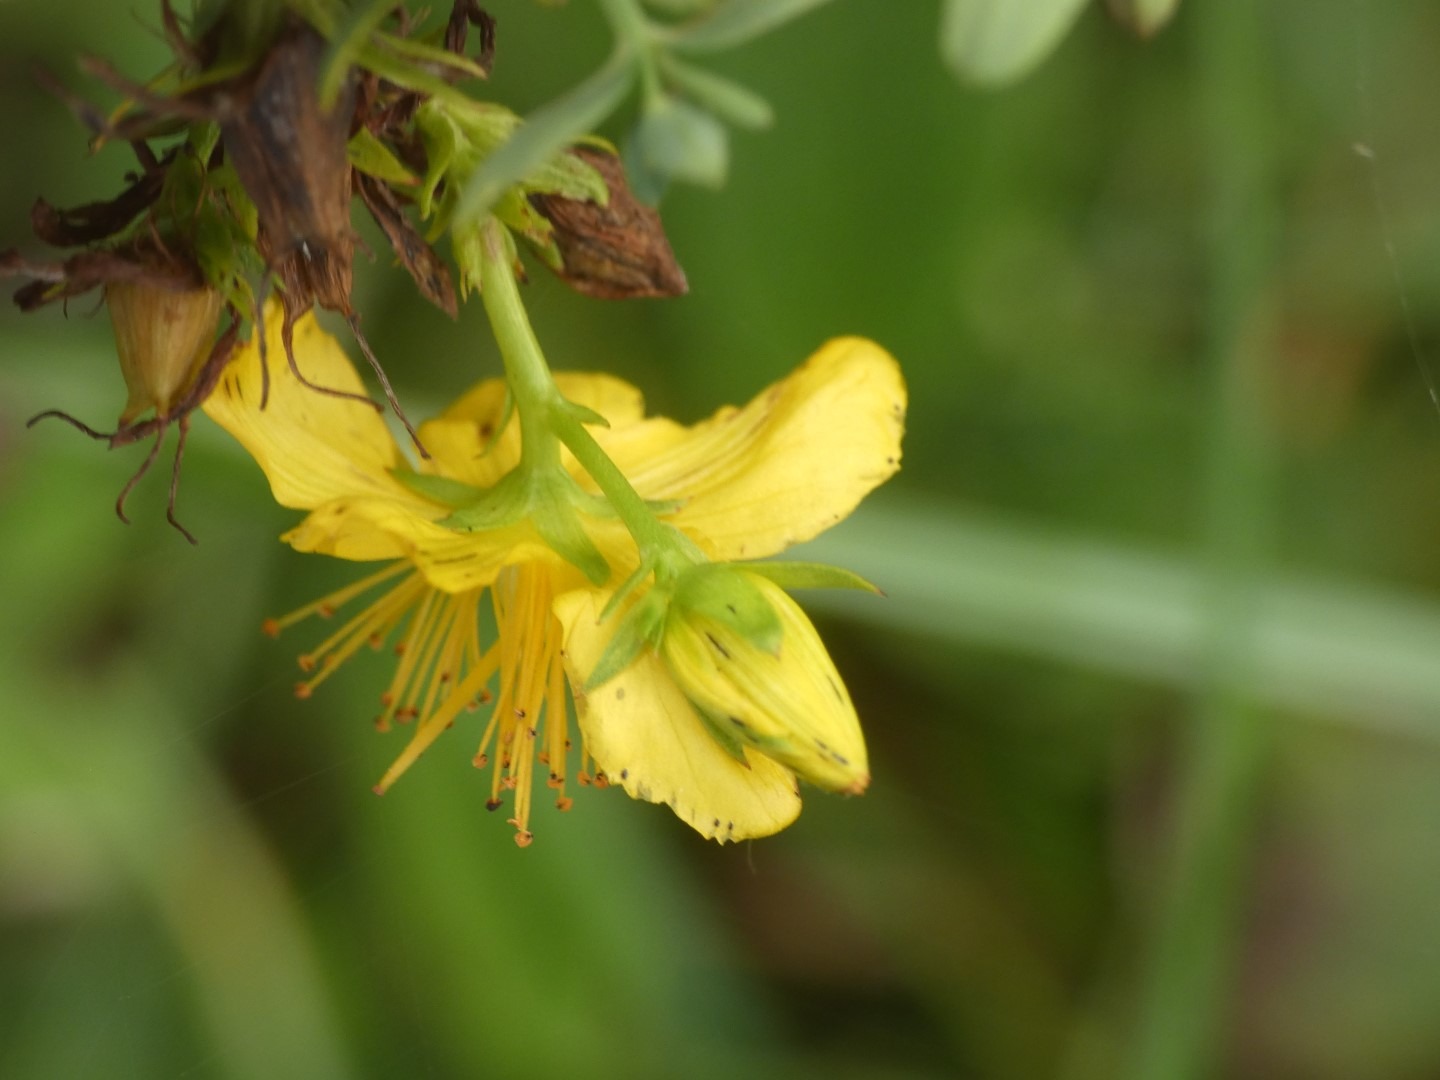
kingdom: Plantae
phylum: Tracheophyta
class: Magnoliopsida
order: Malpighiales
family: Hypericaceae
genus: Hypericum
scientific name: Hypericum perforatum
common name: Prikbladet perikon
